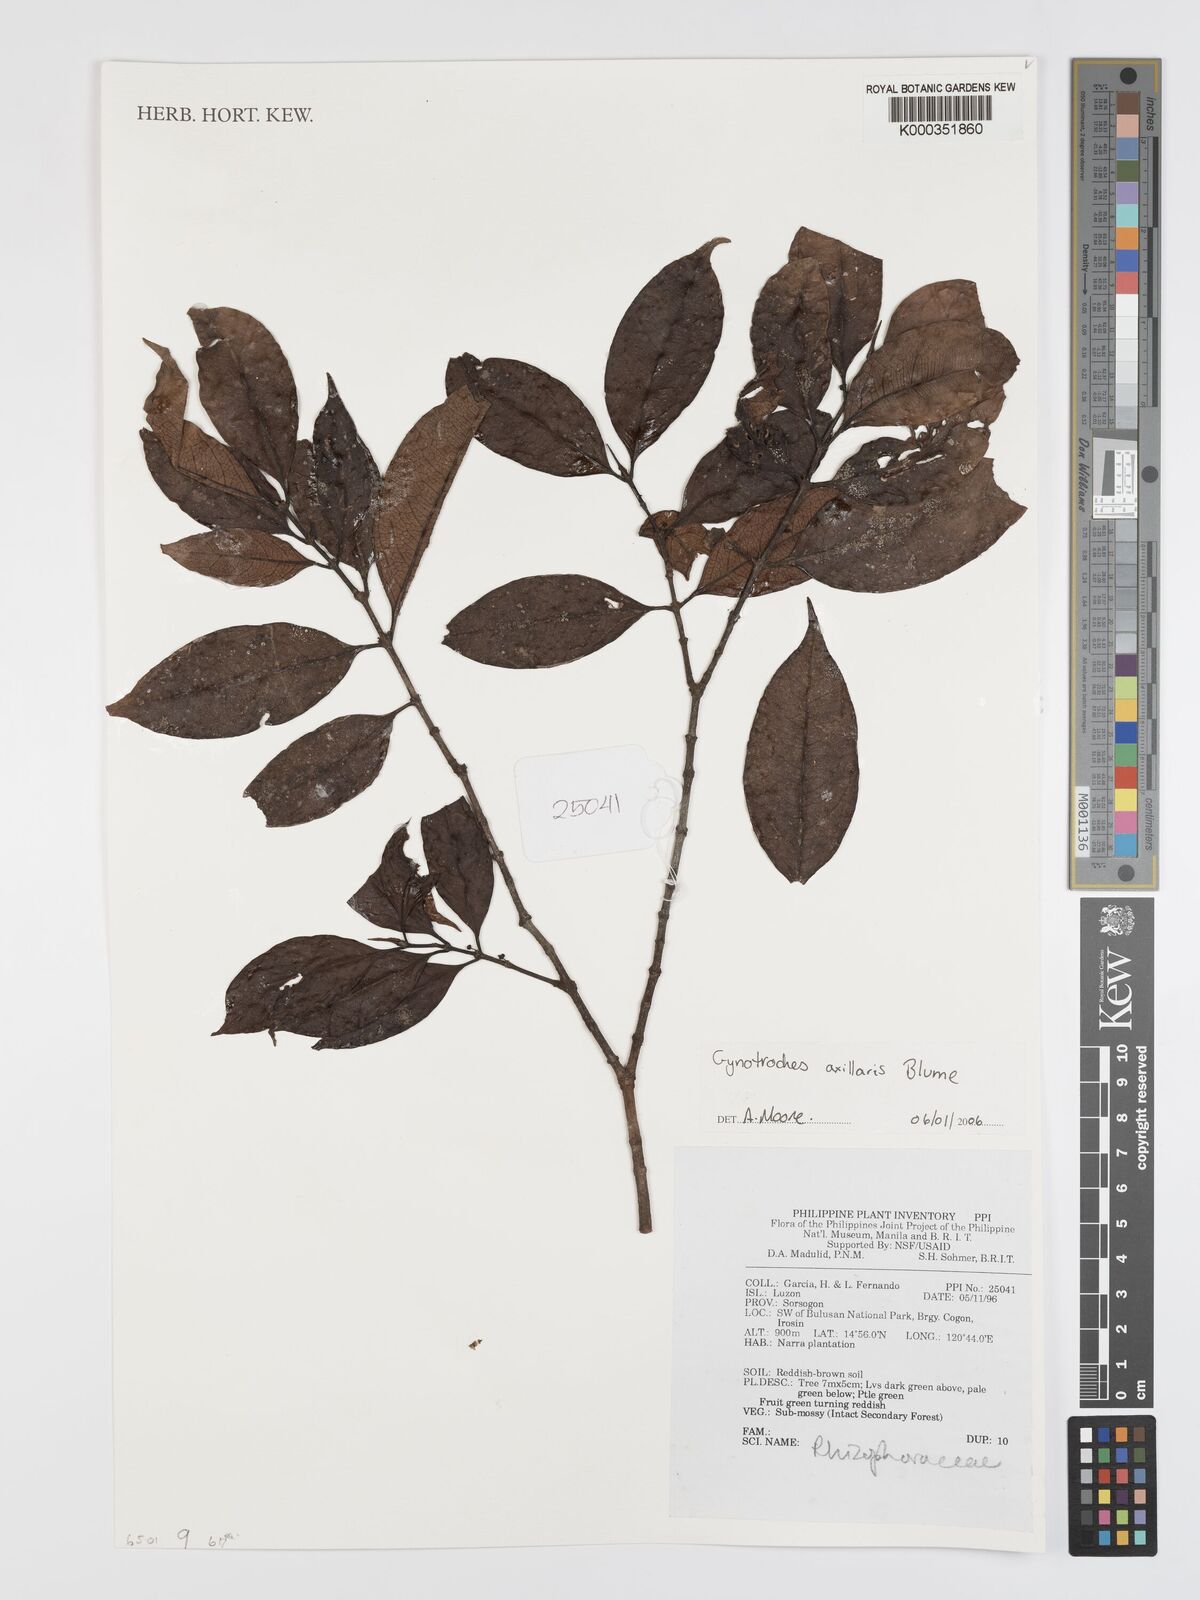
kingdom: Plantae
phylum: Tracheophyta
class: Magnoliopsida
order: Malpighiales
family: Rhizophoraceae
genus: Gynotroches
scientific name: Gynotroches axillaris
